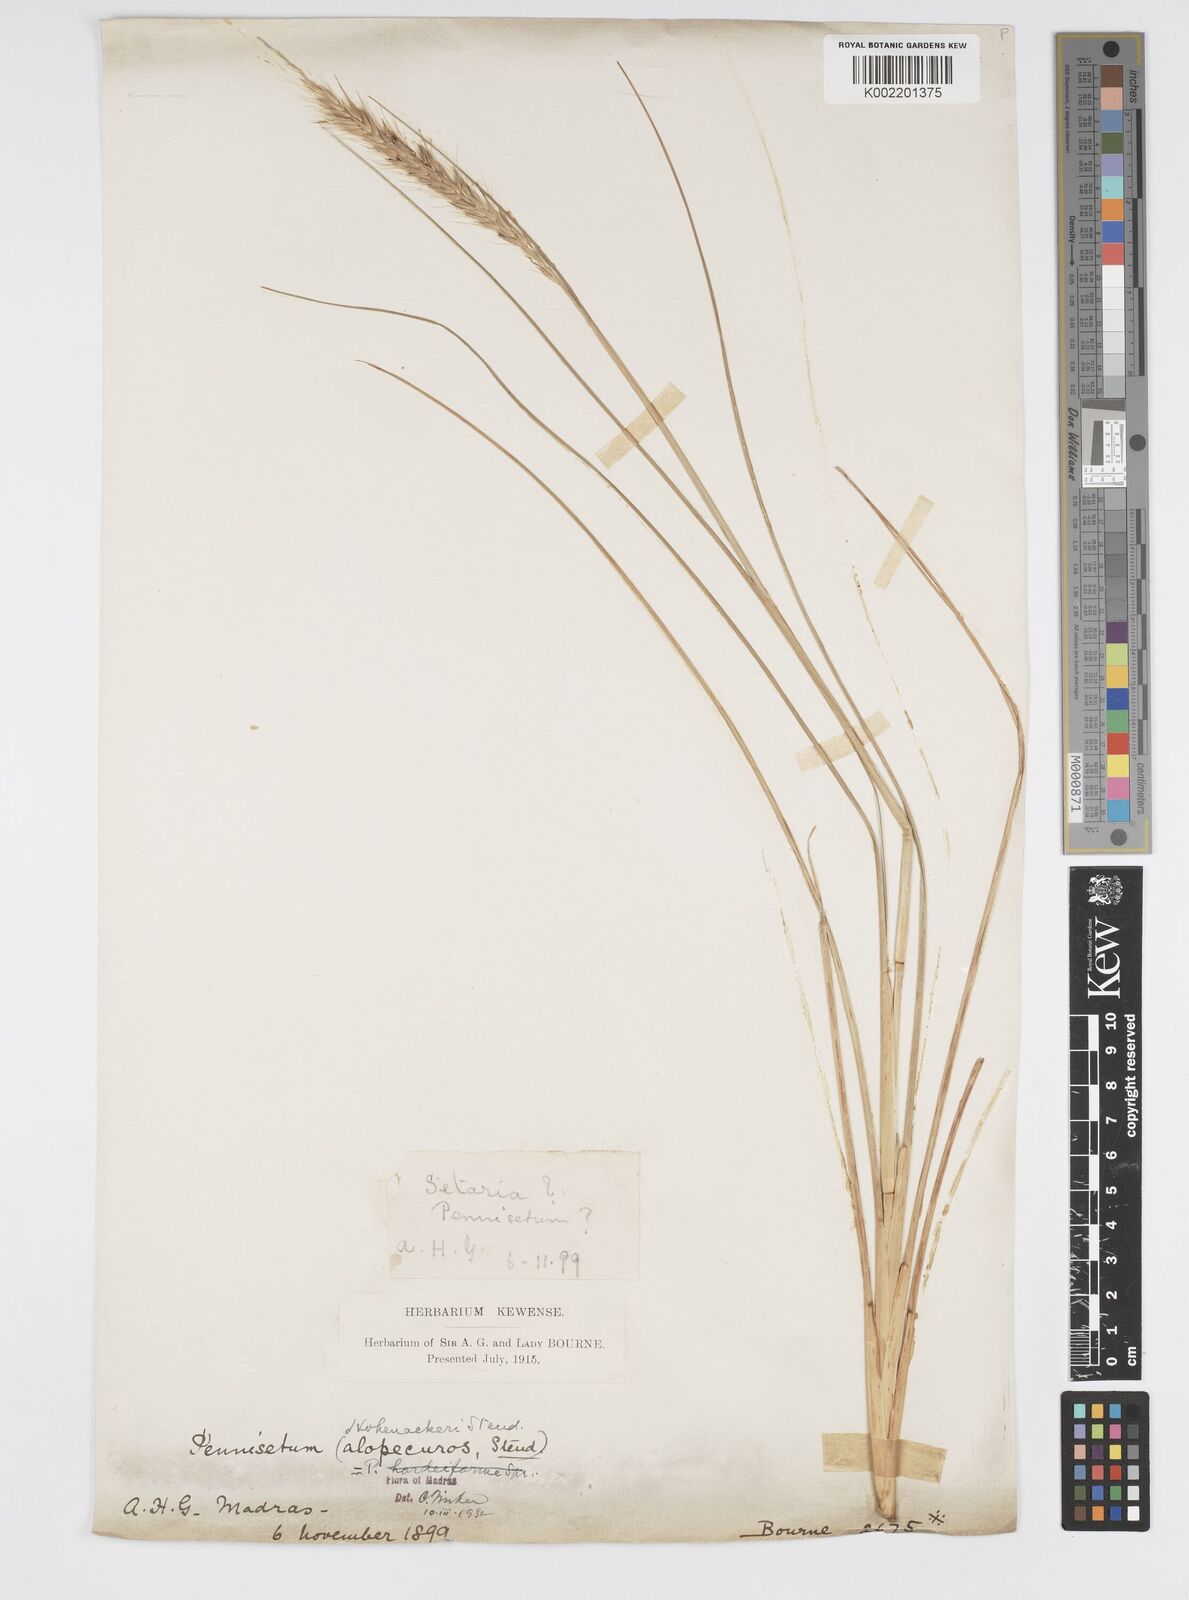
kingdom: Plantae
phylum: Tracheophyta
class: Liliopsida
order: Poales
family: Poaceae
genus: Cenchrus
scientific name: Cenchrus hohenackeri
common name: Moya grass
